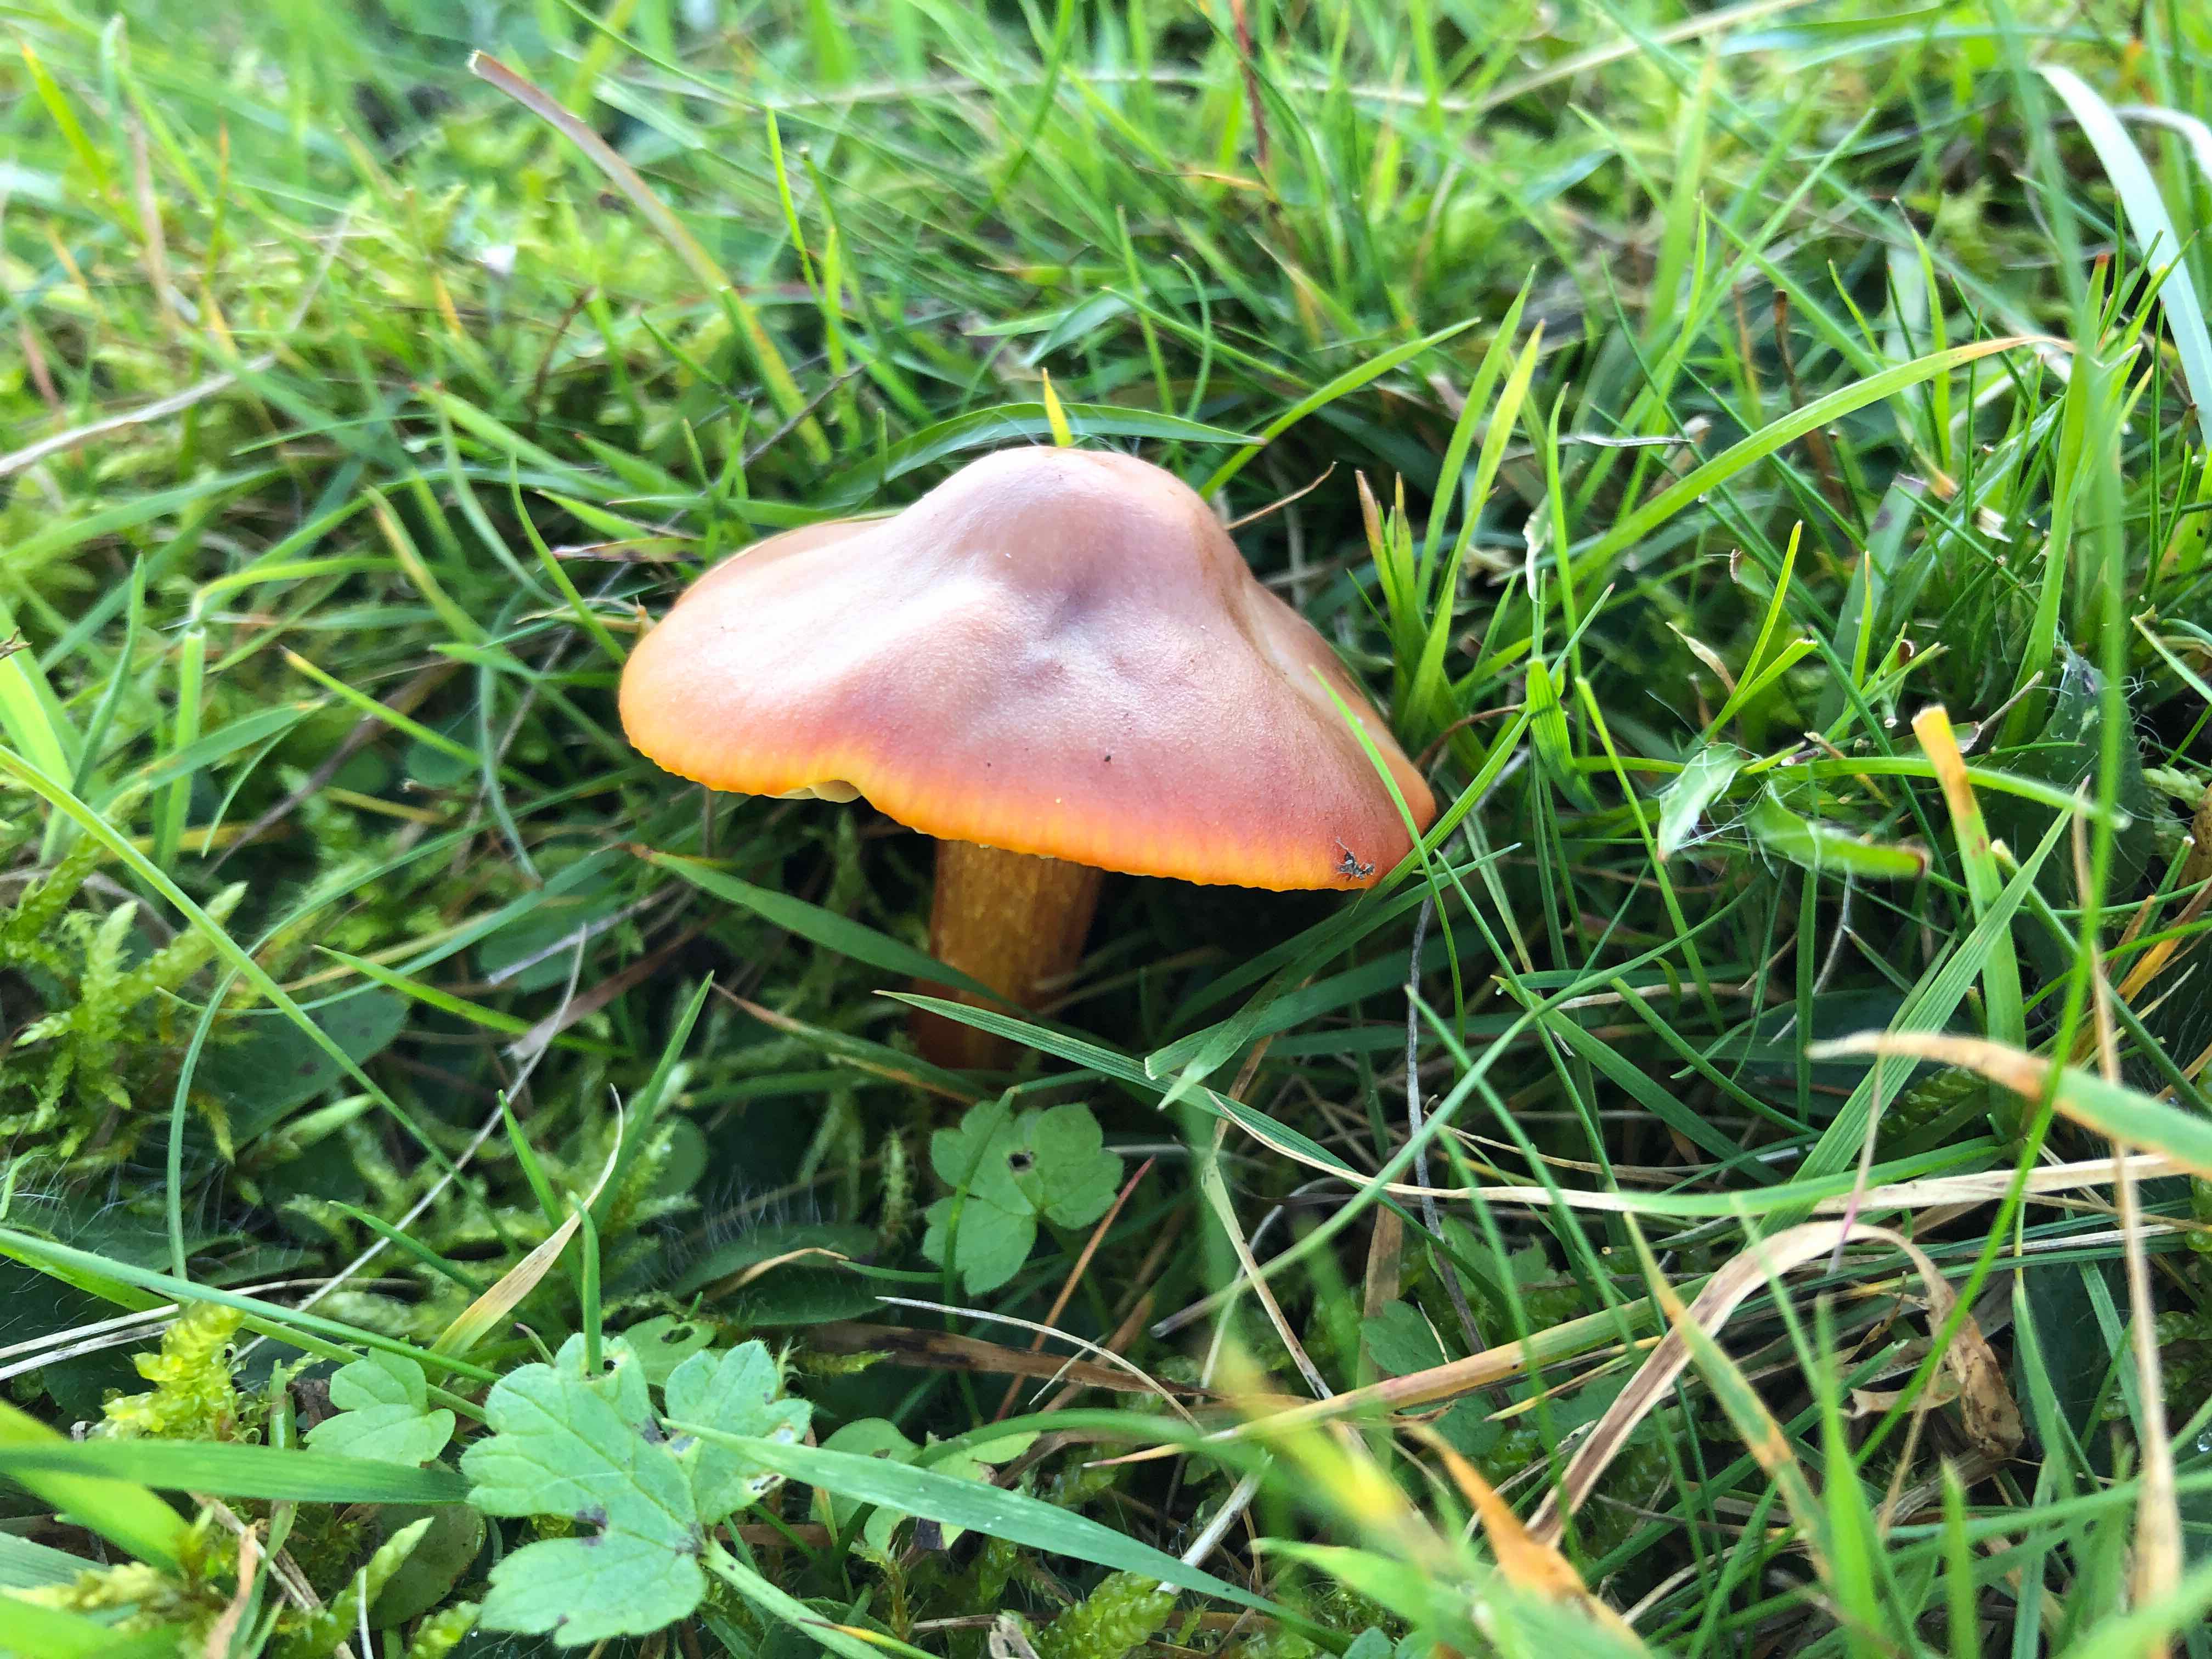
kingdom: Fungi
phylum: Basidiomycota
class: Agaricomycetes
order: Agaricales
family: Hygrophoraceae
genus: Hygrocybe
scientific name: Hygrocybe punicea
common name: skarlagen-vokshat
